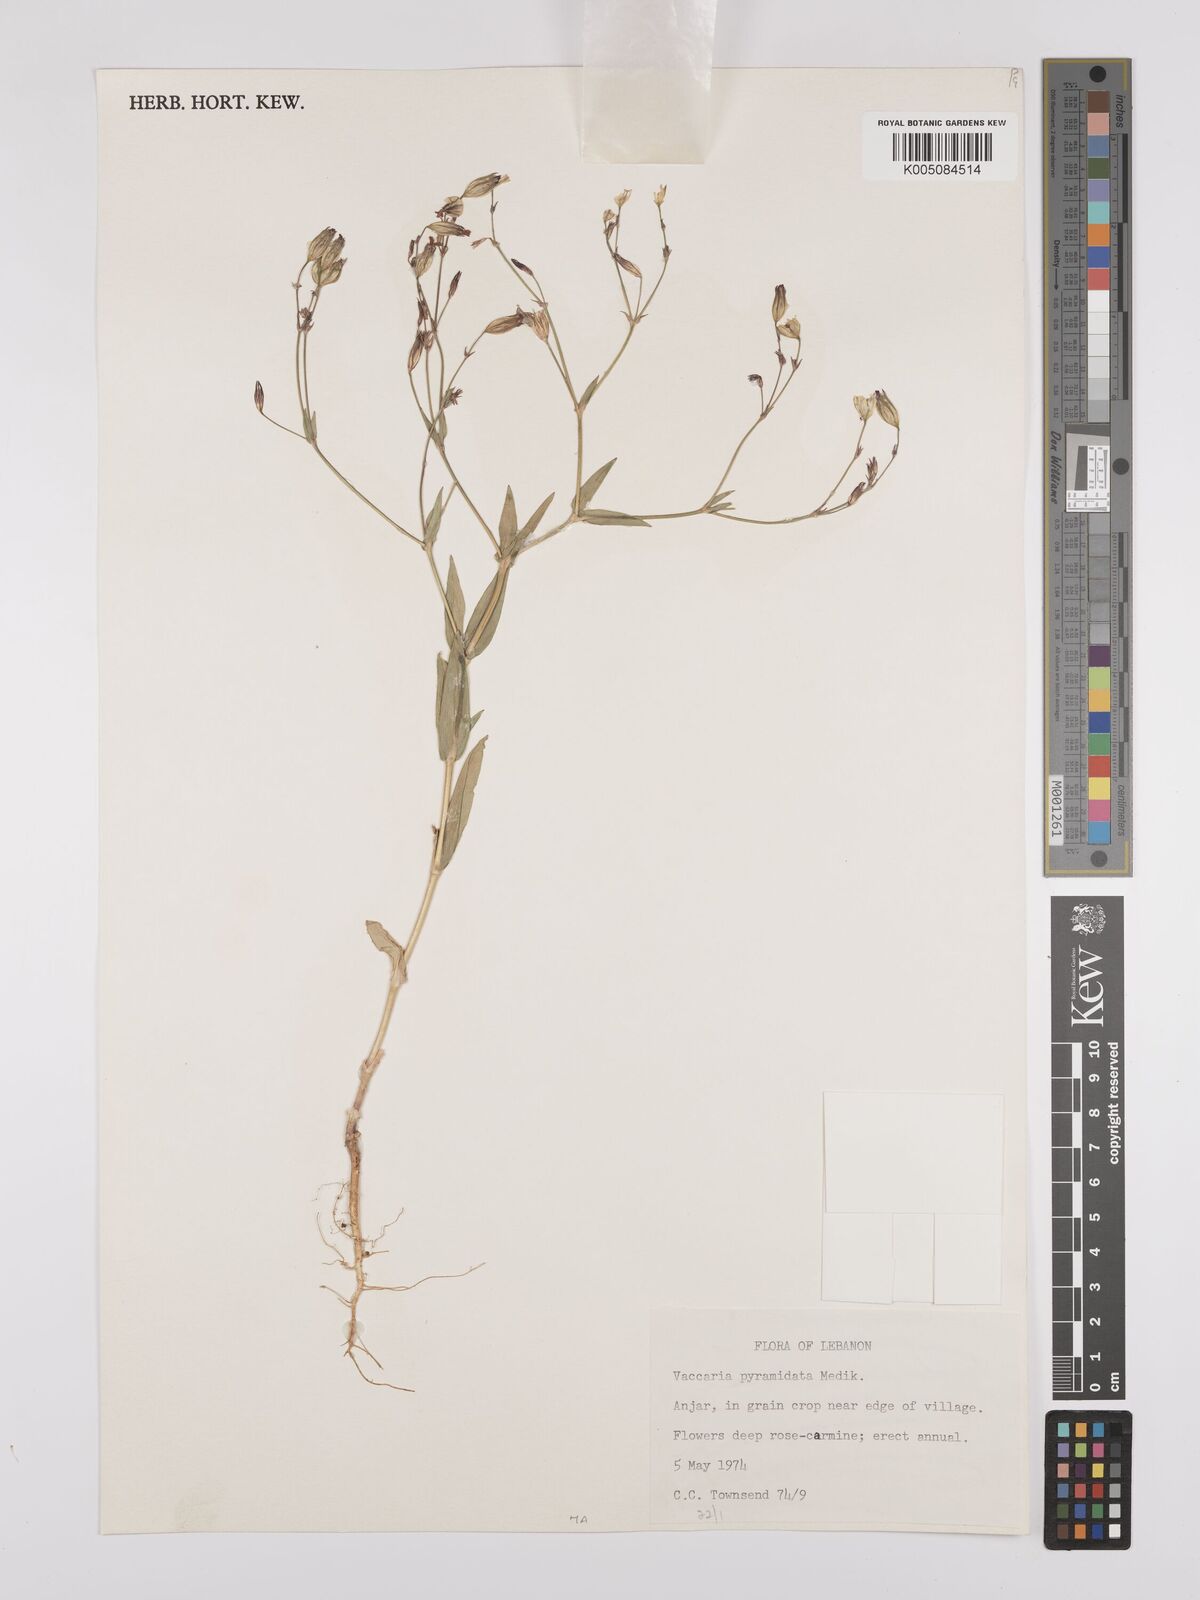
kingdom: Plantae
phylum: Tracheophyta
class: Magnoliopsida
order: Caryophyllales
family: Caryophyllaceae
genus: Gypsophila
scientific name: Gypsophila vaccaria
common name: Cow soapwort
